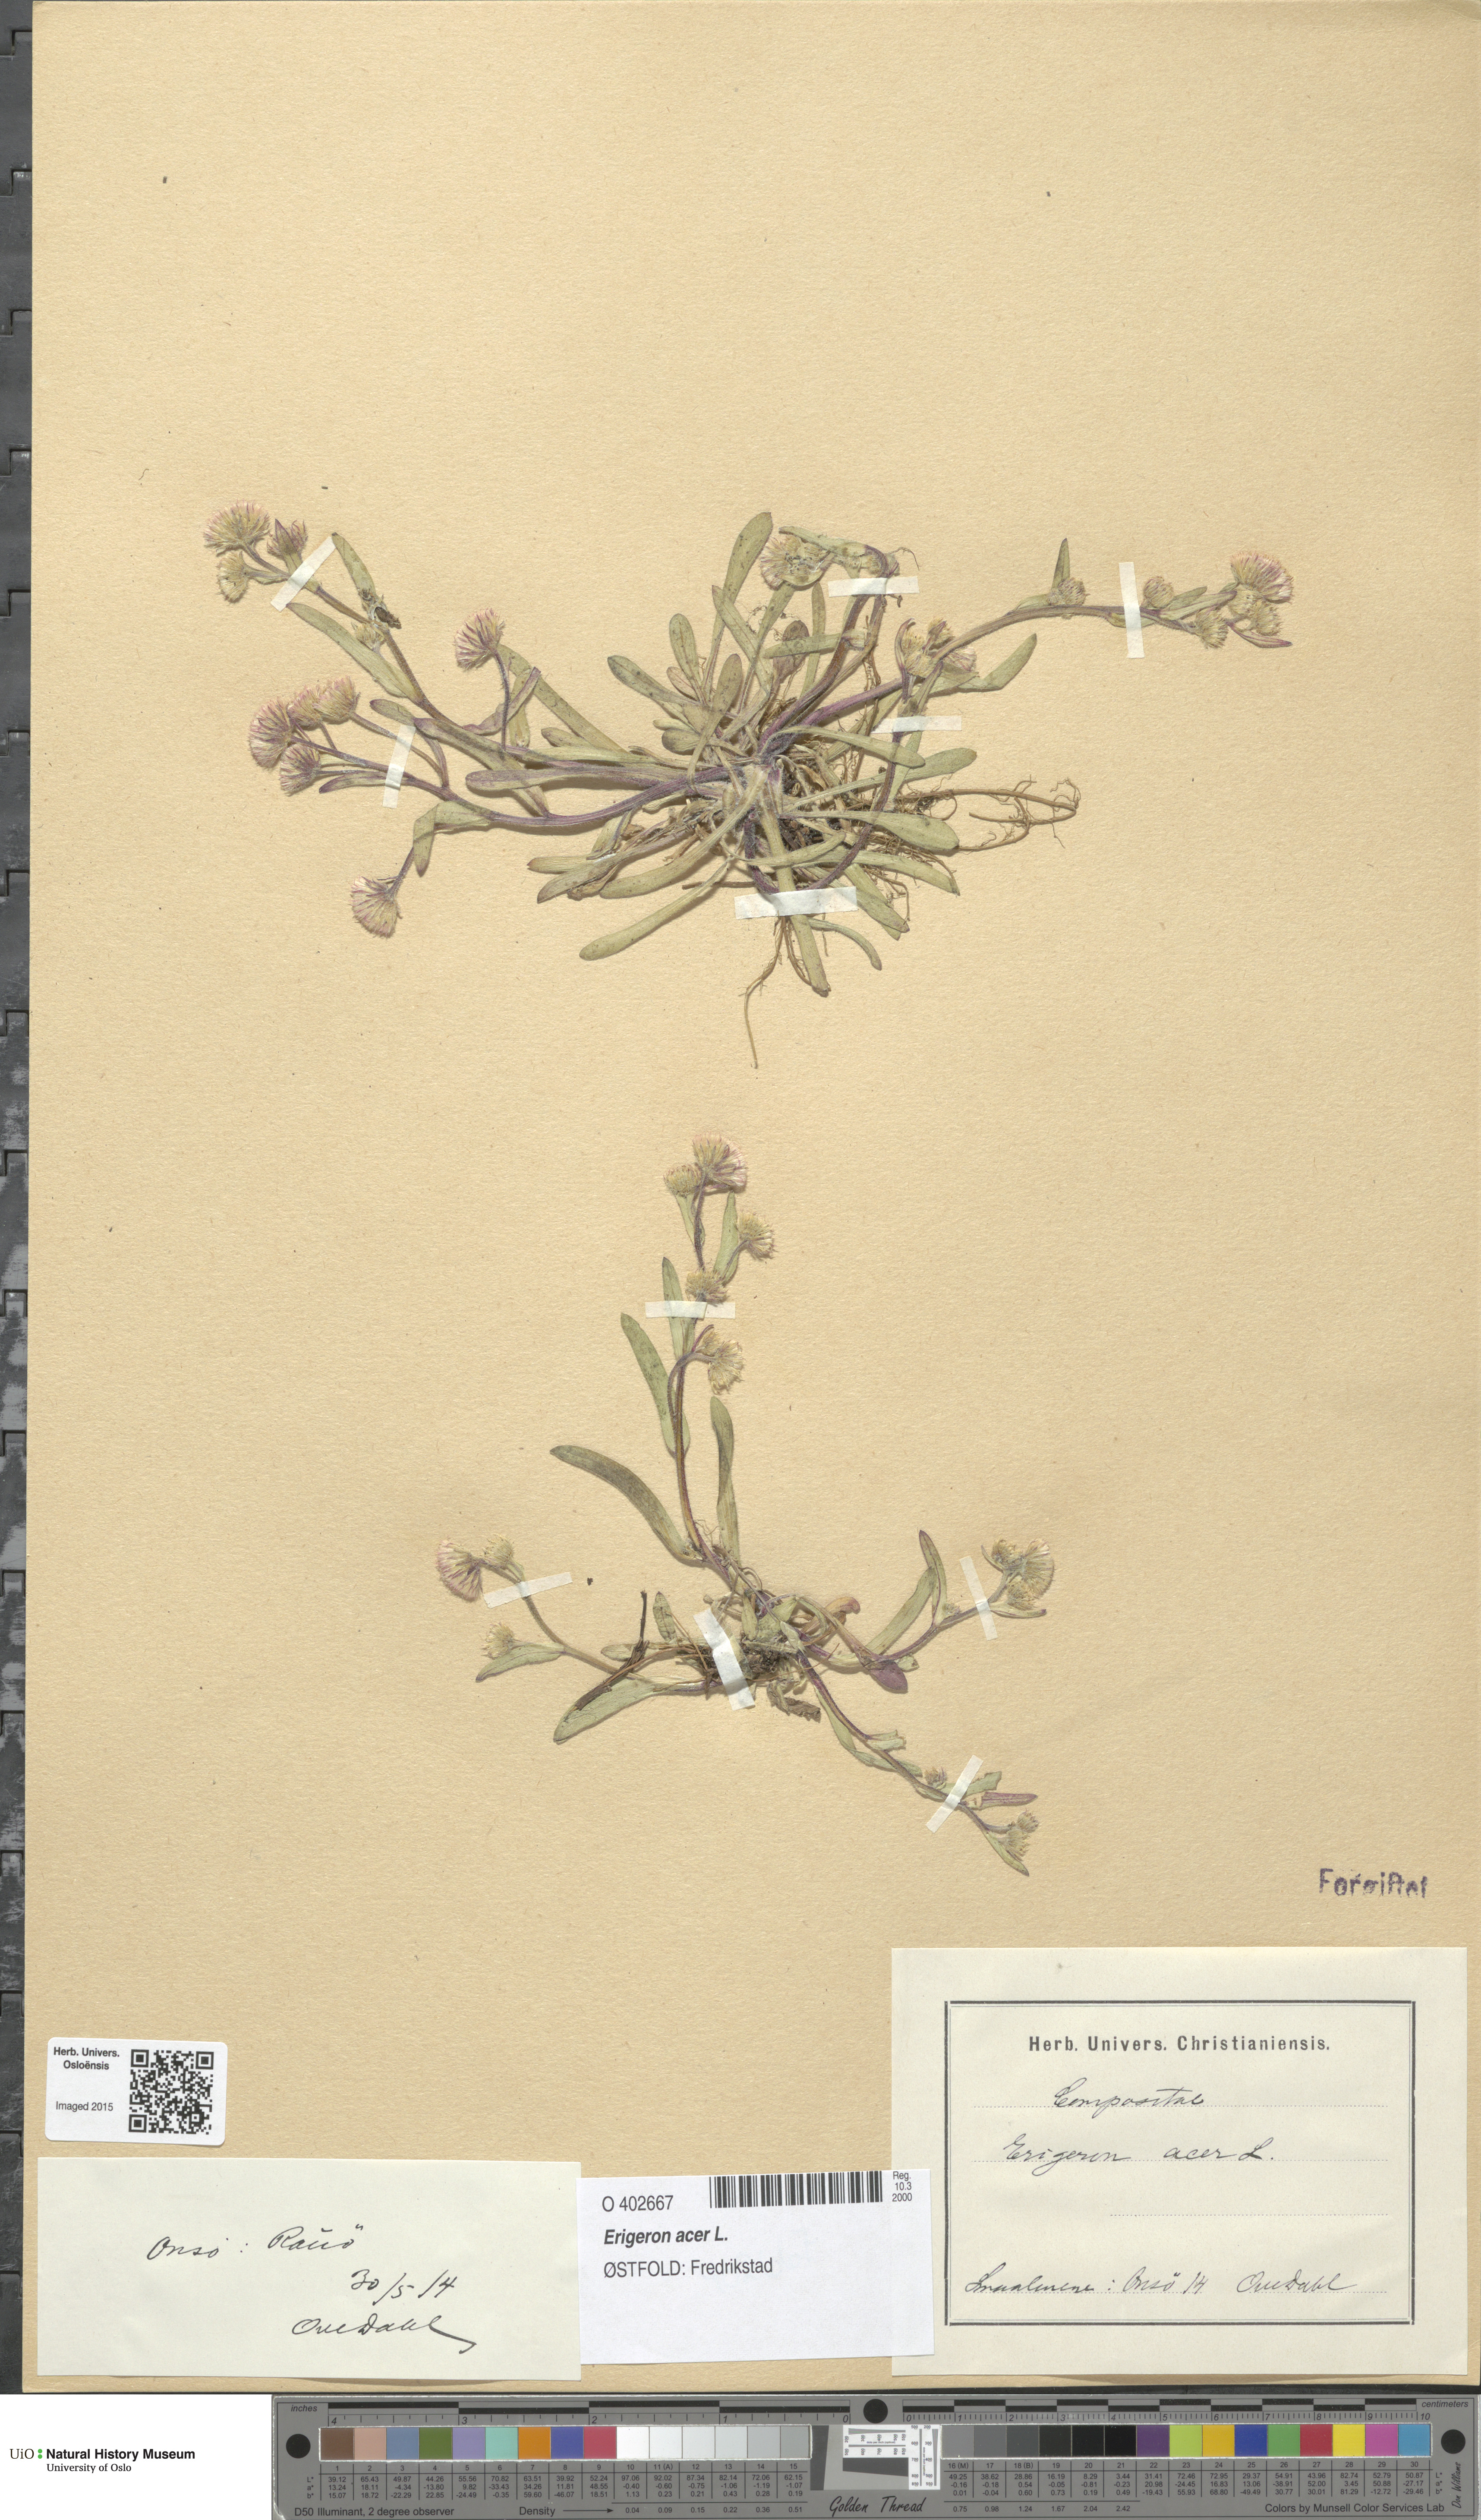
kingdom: Plantae
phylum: Tracheophyta
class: Magnoliopsida
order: Asterales
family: Asteraceae
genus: Erigeron
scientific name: Erigeron acris
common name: Blue fleabane
